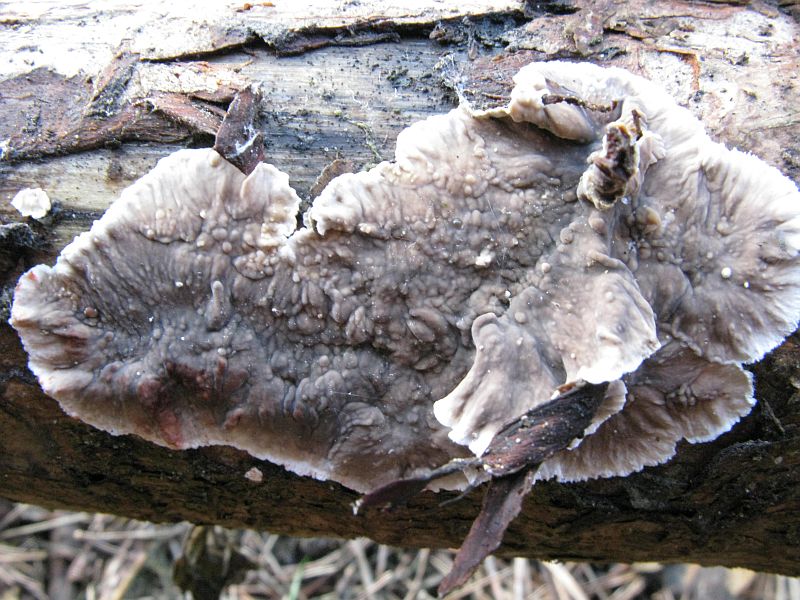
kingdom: Fungi
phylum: Basidiomycota
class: Agaricomycetes
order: Russulales
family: Stereaceae
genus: Stereum
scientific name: Stereum sanguinolentum
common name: blødende lædersvamp
